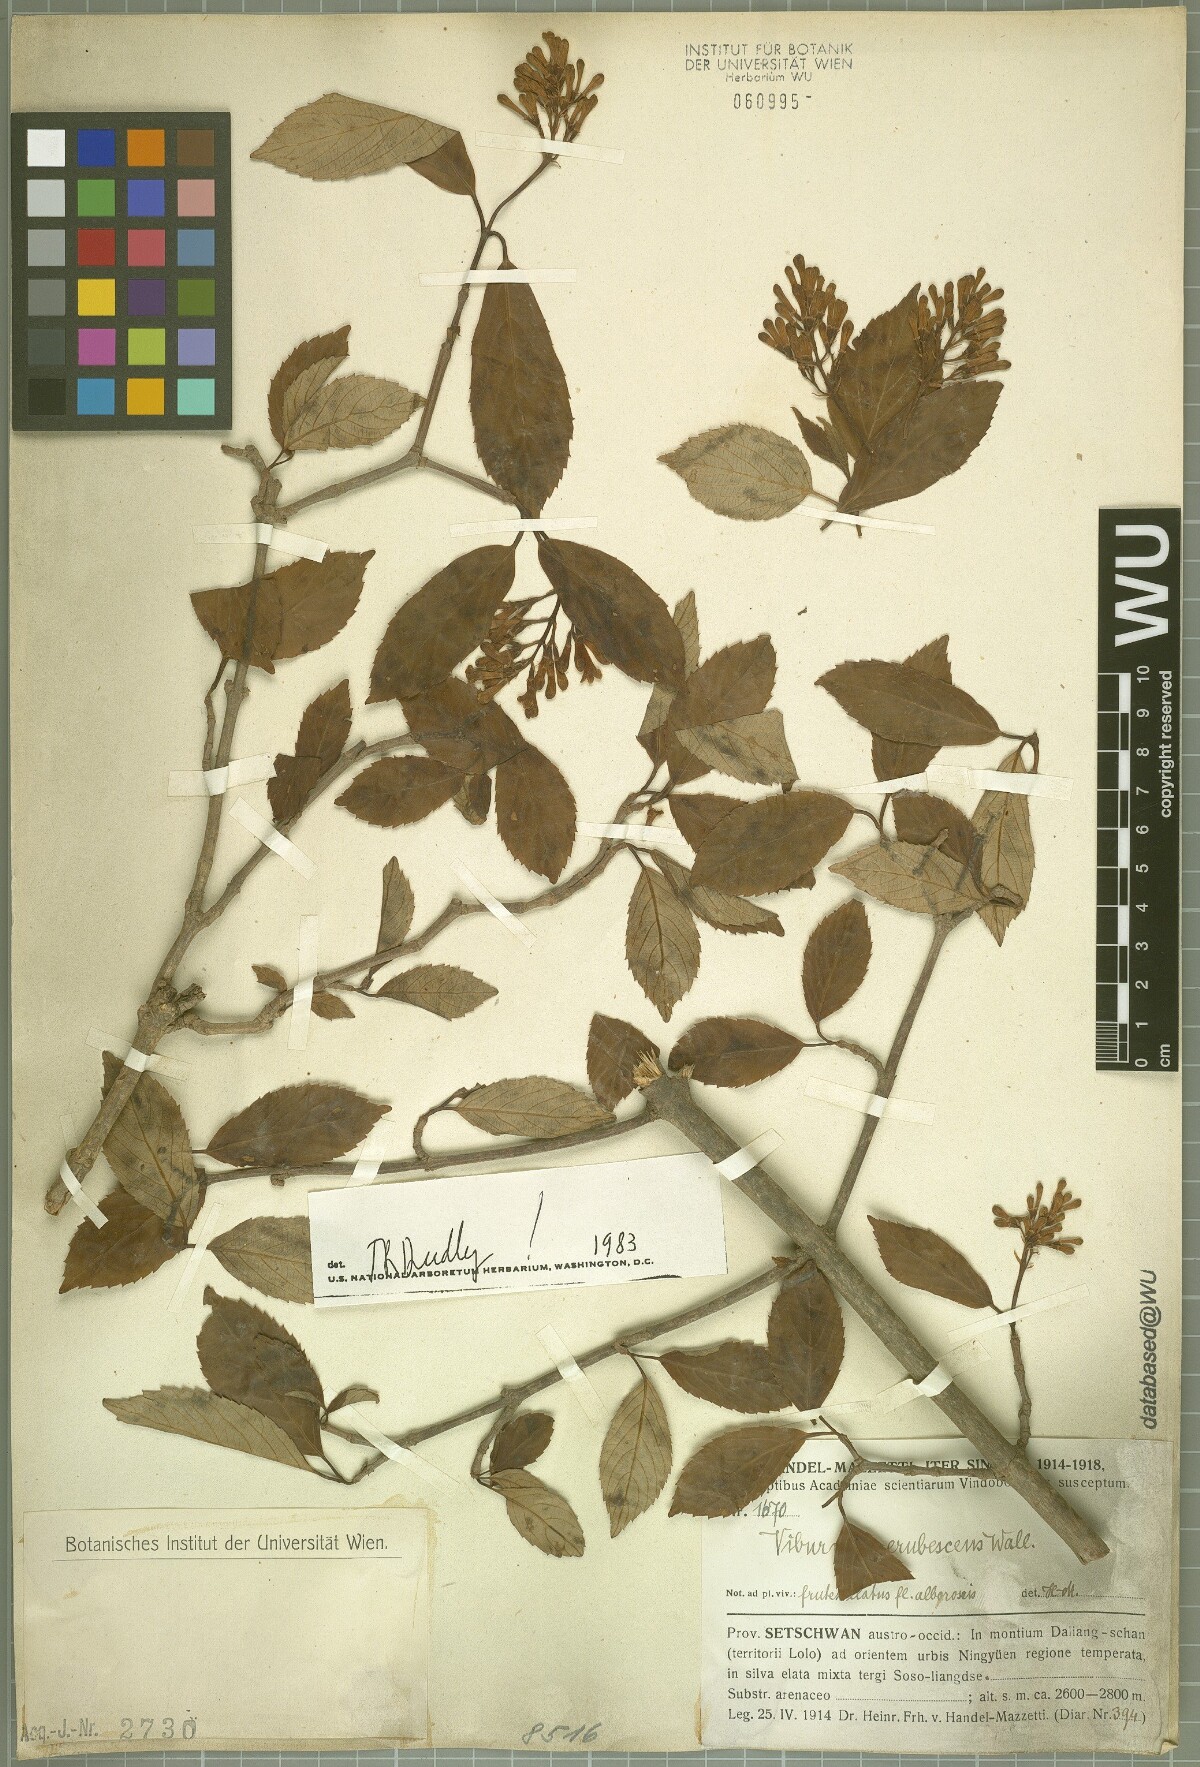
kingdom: Plantae
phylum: Tracheophyta
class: Magnoliopsida
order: Dipsacales
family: Viburnaceae
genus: Viburnum
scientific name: Viburnum erubescens
